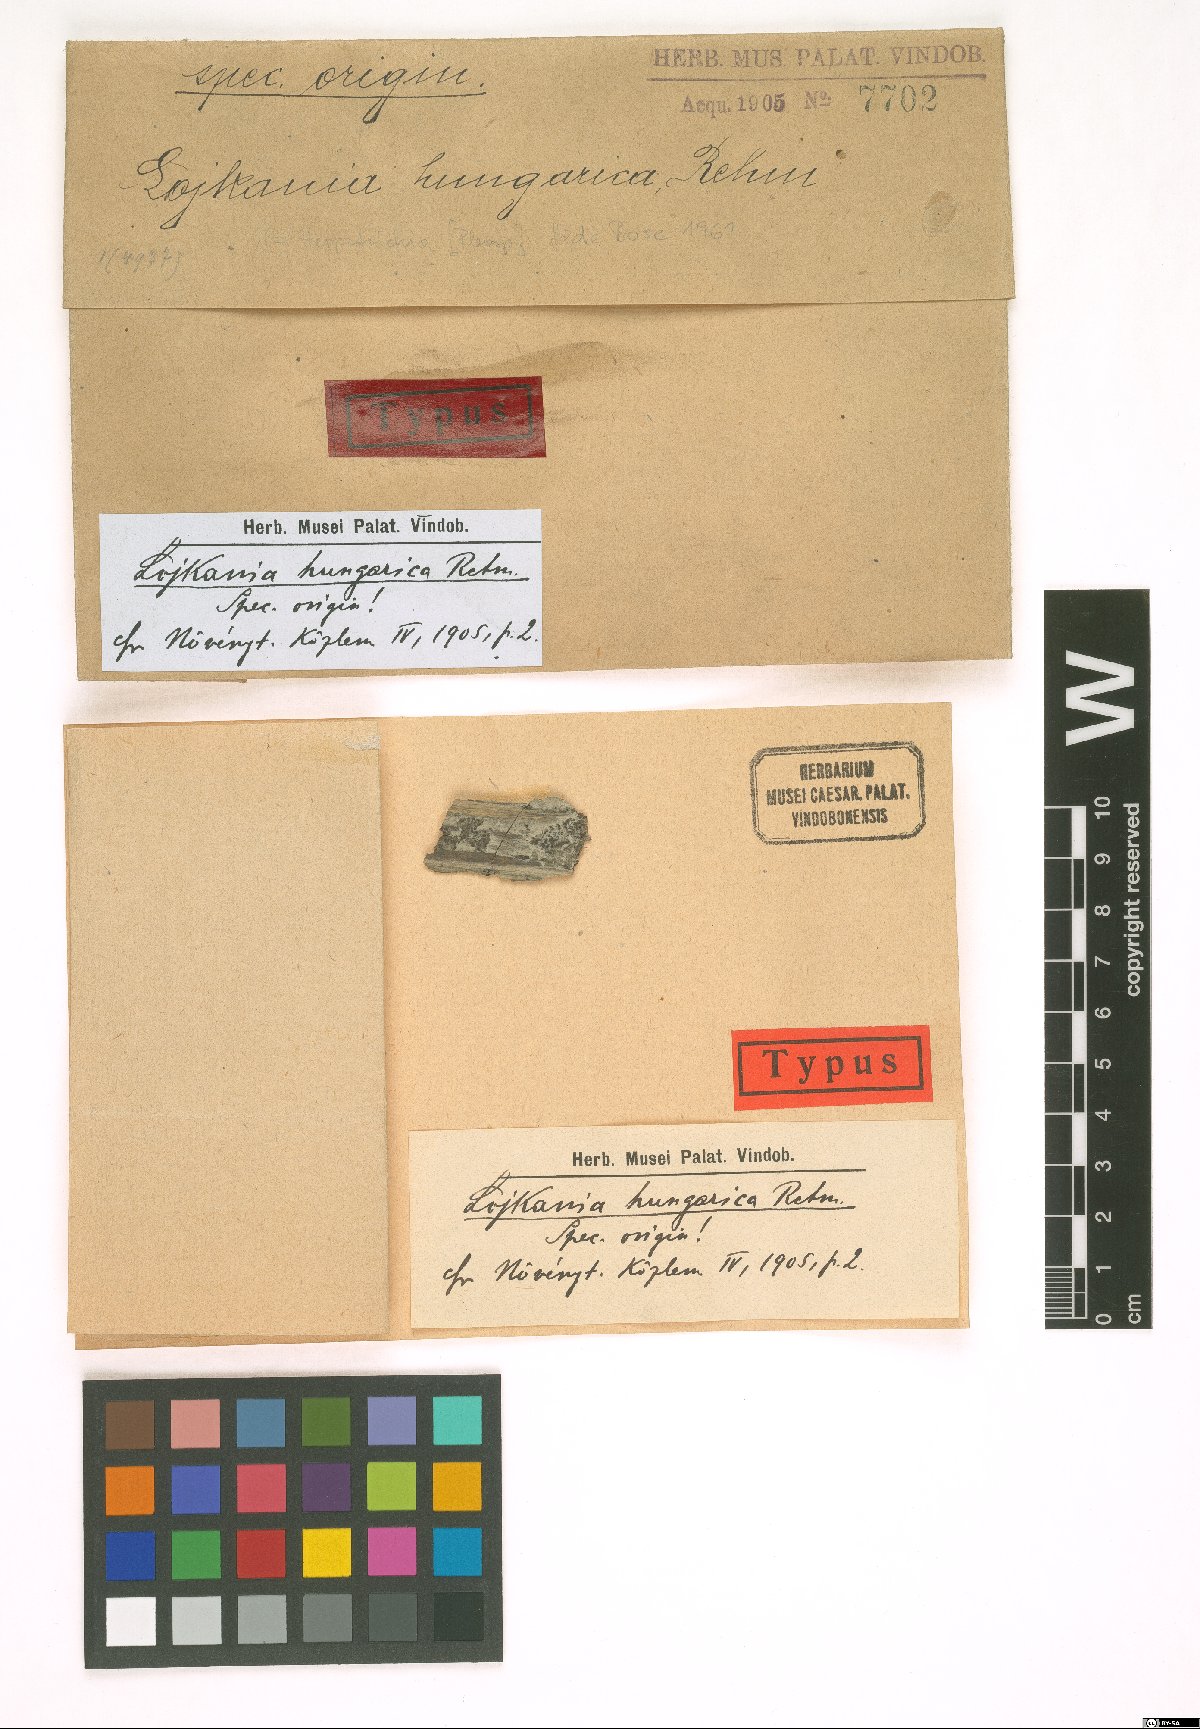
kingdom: Fungi
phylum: Ascomycota
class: Dothideomycetes
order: Pleosporales
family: Fenestellaceae
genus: Lojkania
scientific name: Lojkania hungarica
